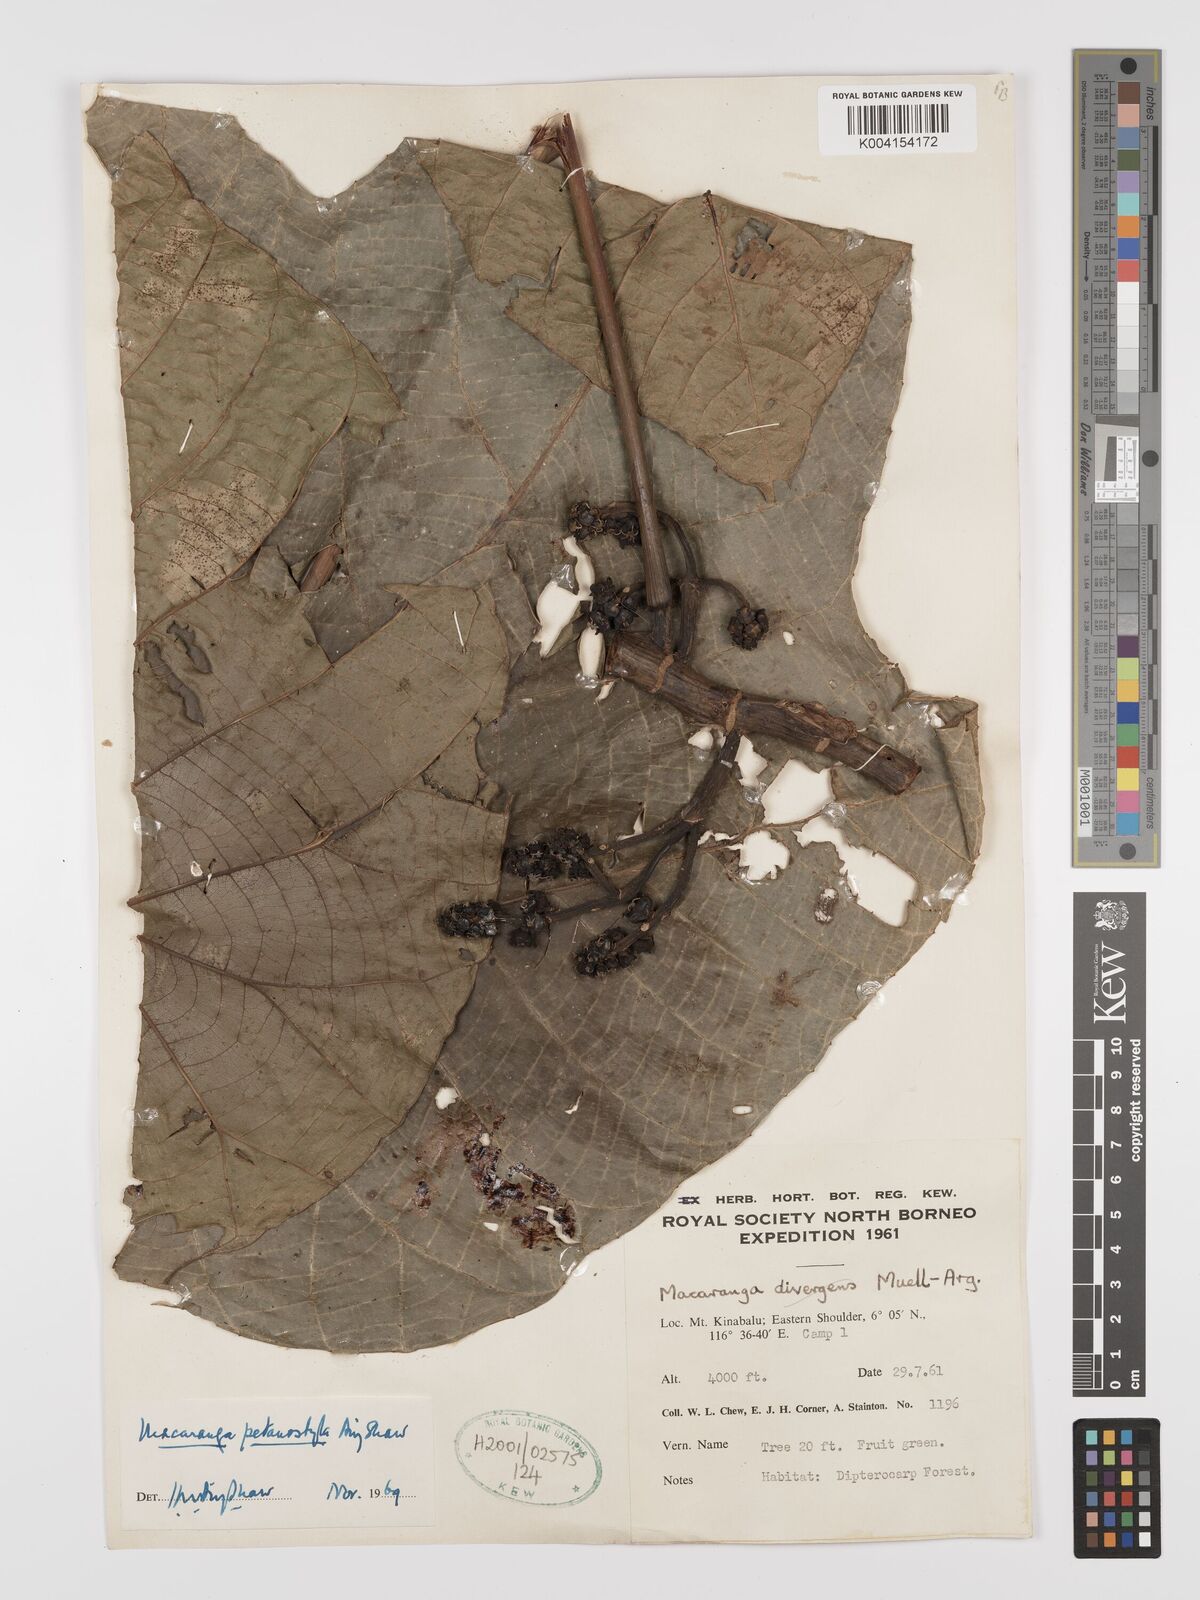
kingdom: Plantae
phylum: Tracheophyta
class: Magnoliopsida
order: Malpighiales
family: Euphorbiaceae
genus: Macaranga
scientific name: Macaranga petanostyla
